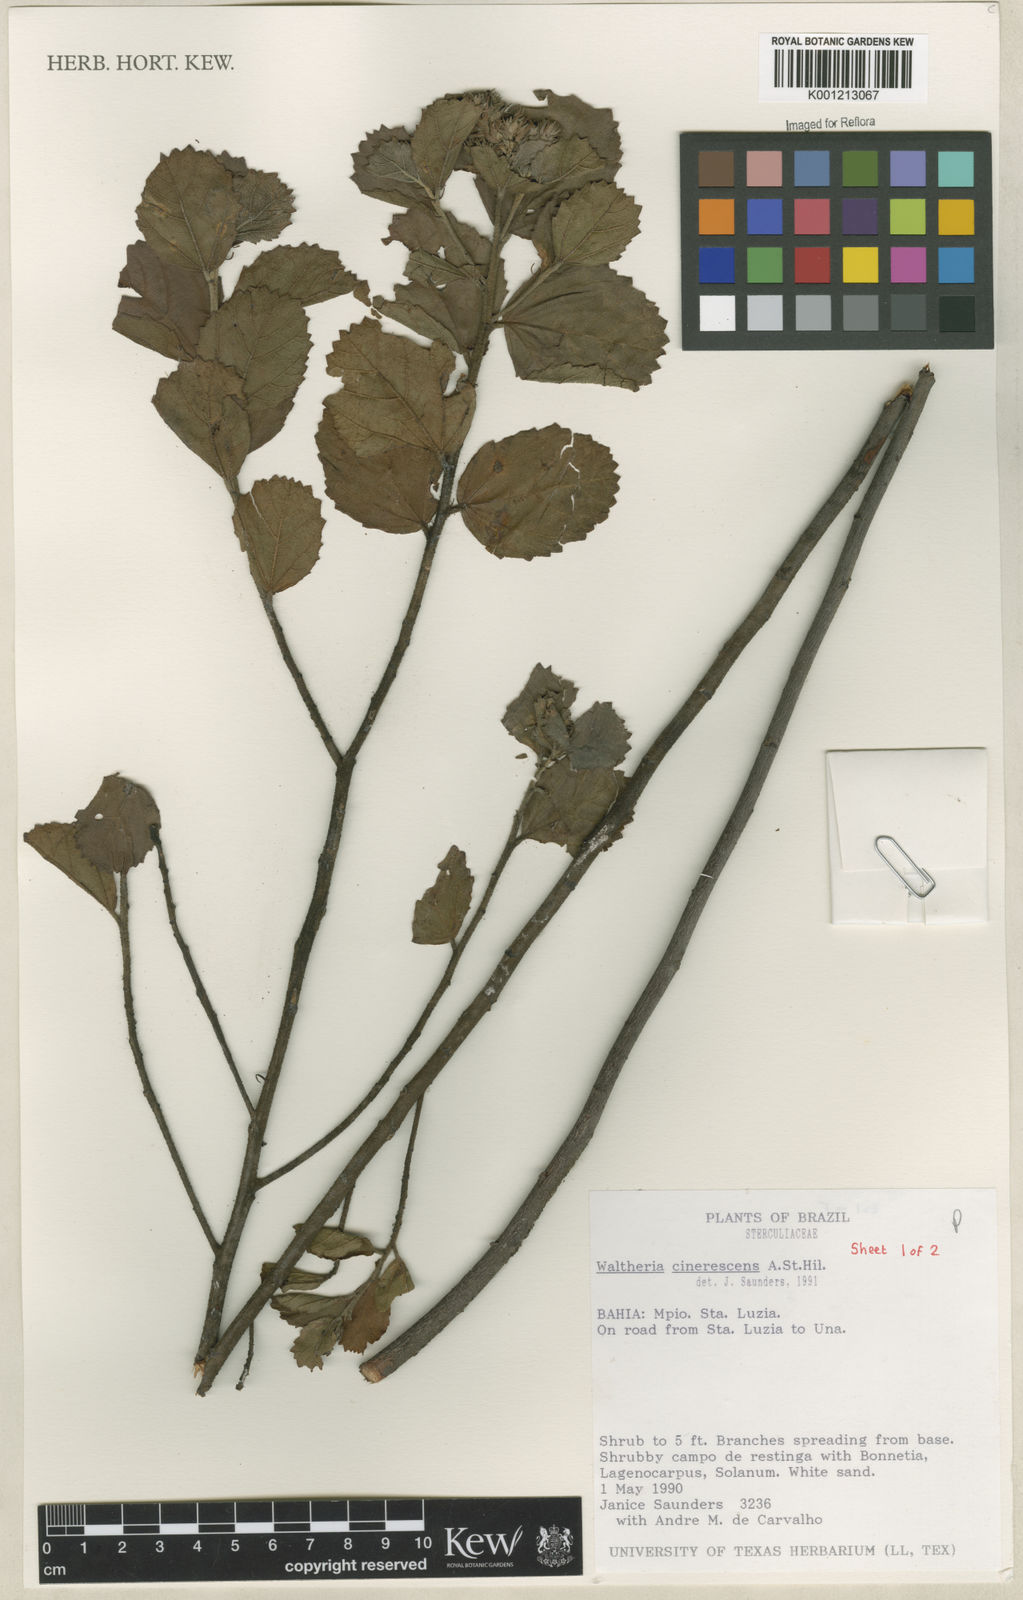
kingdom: Plantae
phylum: Tracheophyta
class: Magnoliopsida
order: Malvales
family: Malvaceae
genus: Waltheria
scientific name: Waltheria cinerescens
